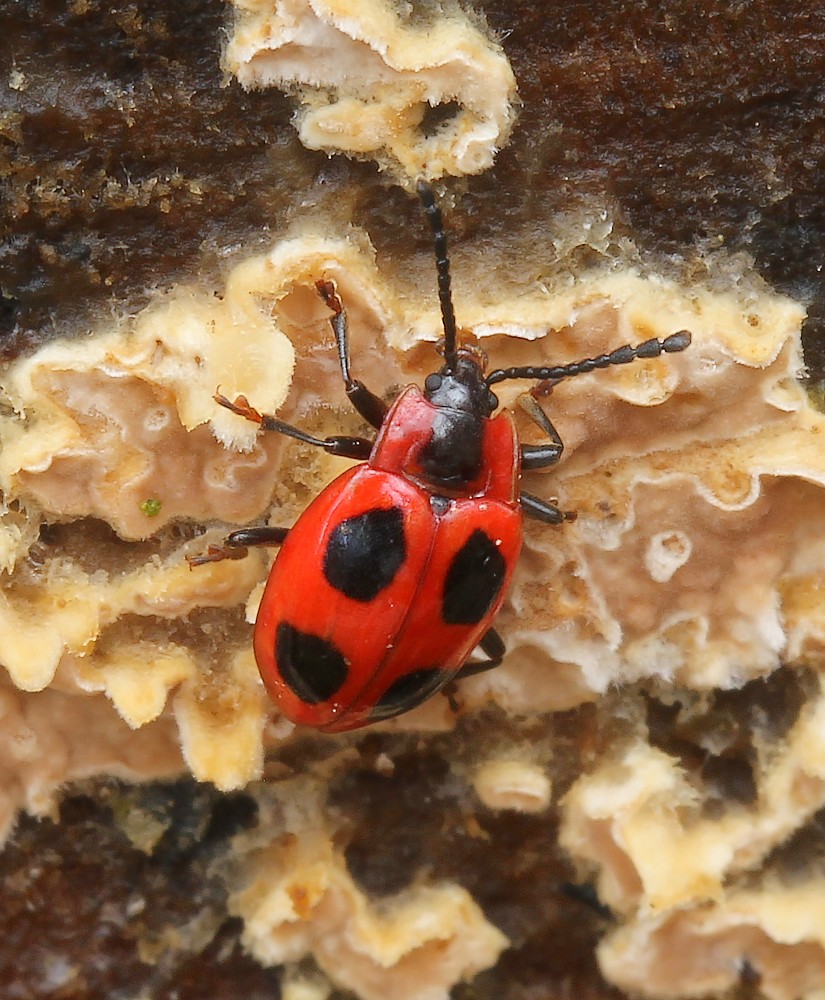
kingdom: Fungi
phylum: Basidiomycota
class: Agaricomycetes
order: Agaricales
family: Physalacriaceae
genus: Cylindrobasidium
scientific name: Cylindrobasidium evolvens
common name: sprækkehinde
